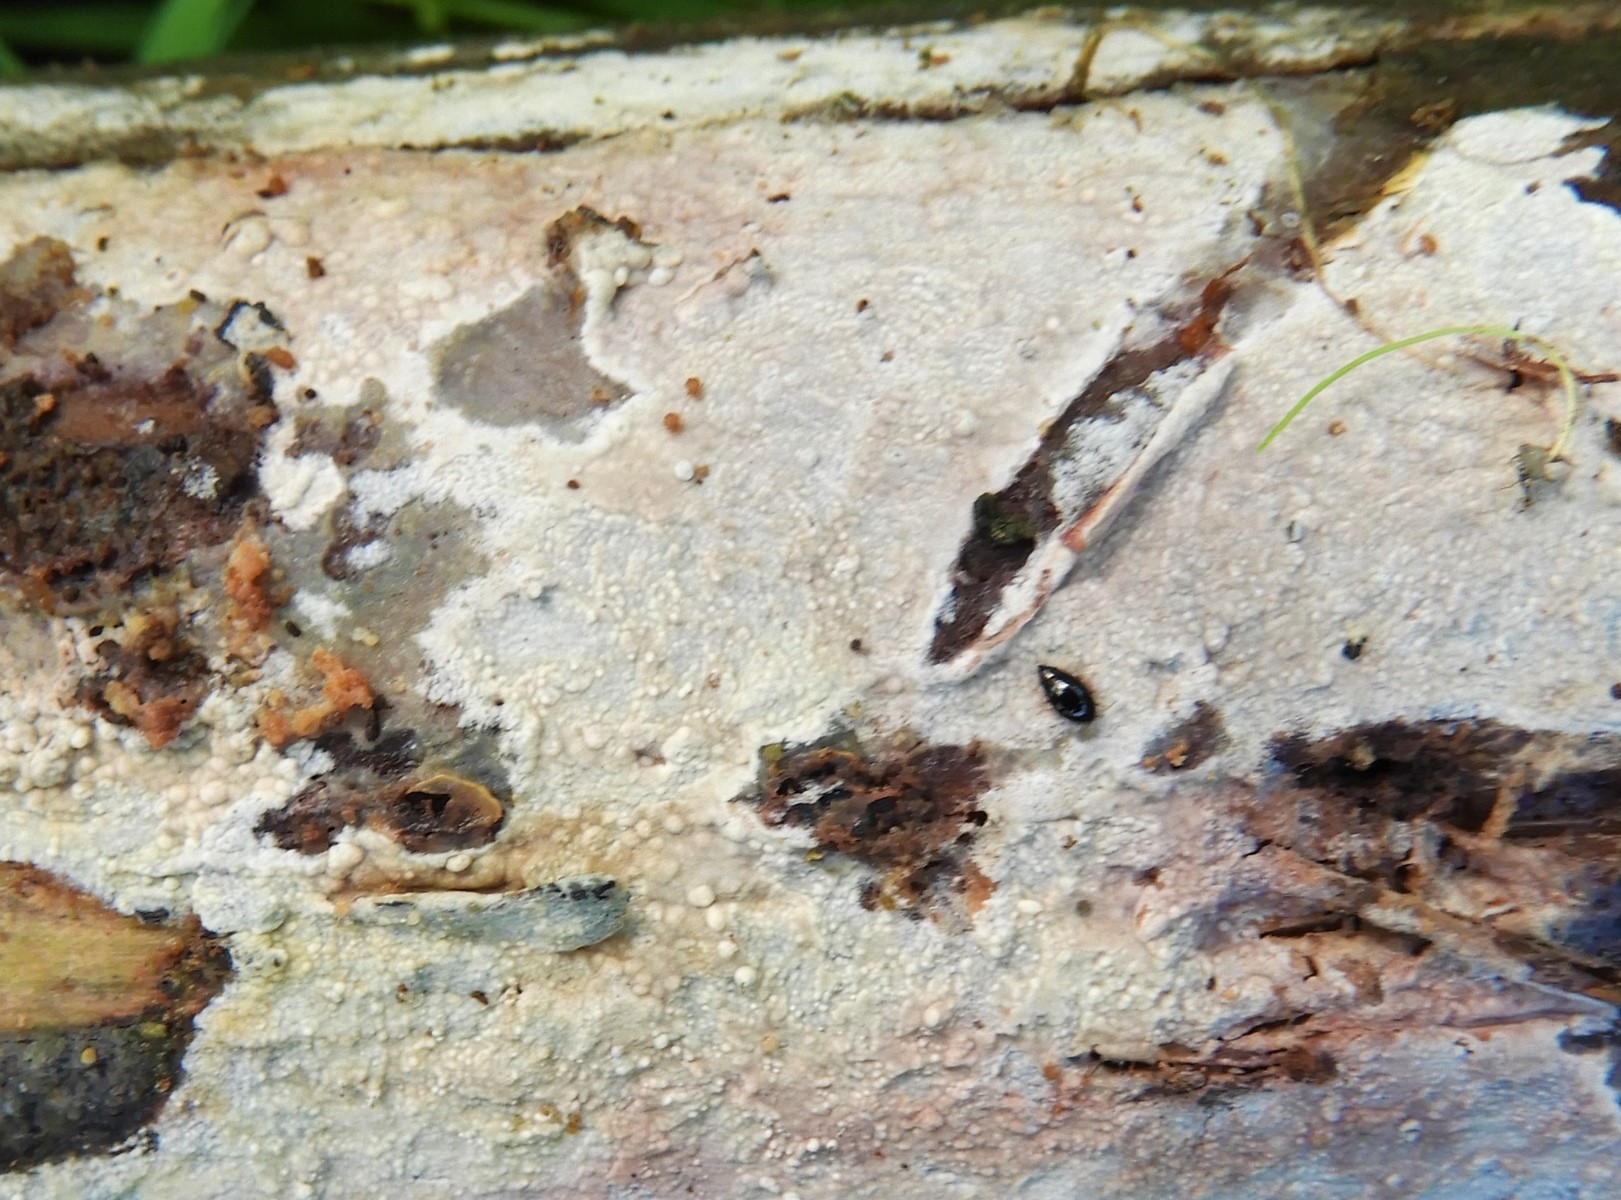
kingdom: Fungi
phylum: Basidiomycota
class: Agaricomycetes
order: Corticiales
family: Corticiaceae
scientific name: Corticiaceae
